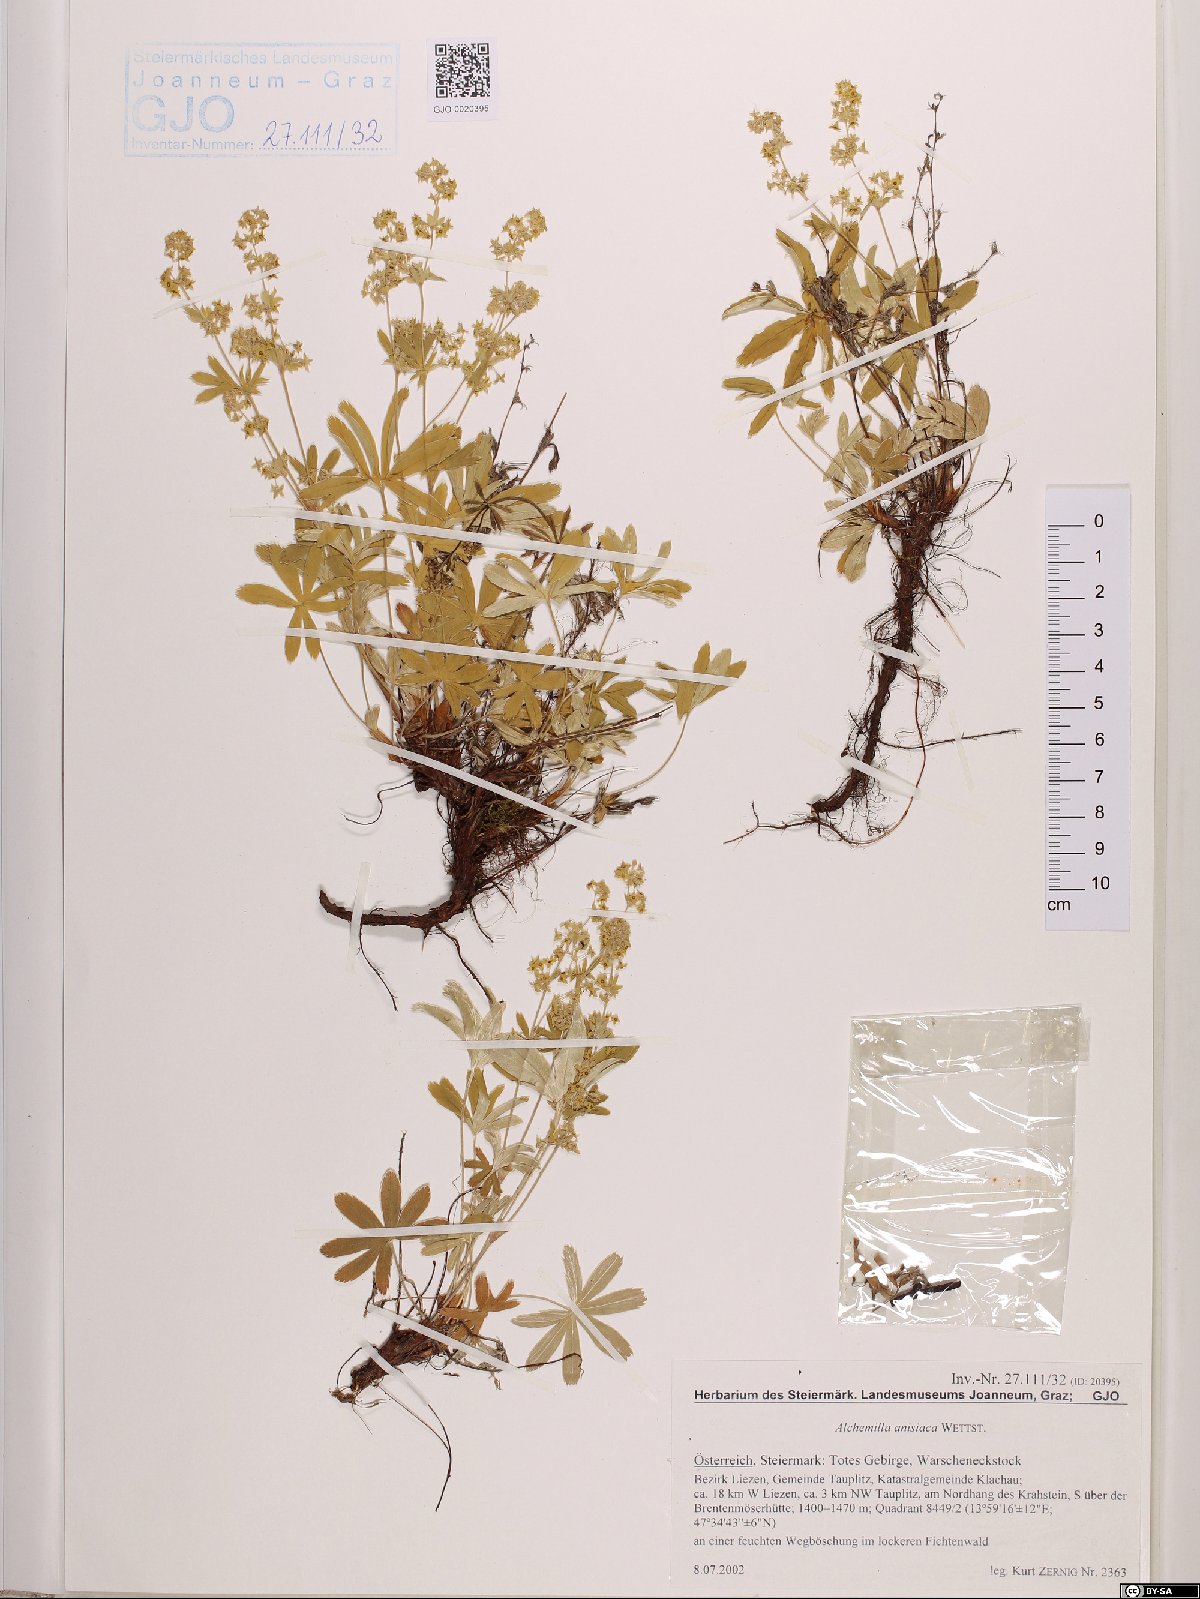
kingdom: Plantae
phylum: Tracheophyta
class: Magnoliopsida
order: Rosales
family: Rosaceae
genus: Alchemilla
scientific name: Alchemilla anisiaca
